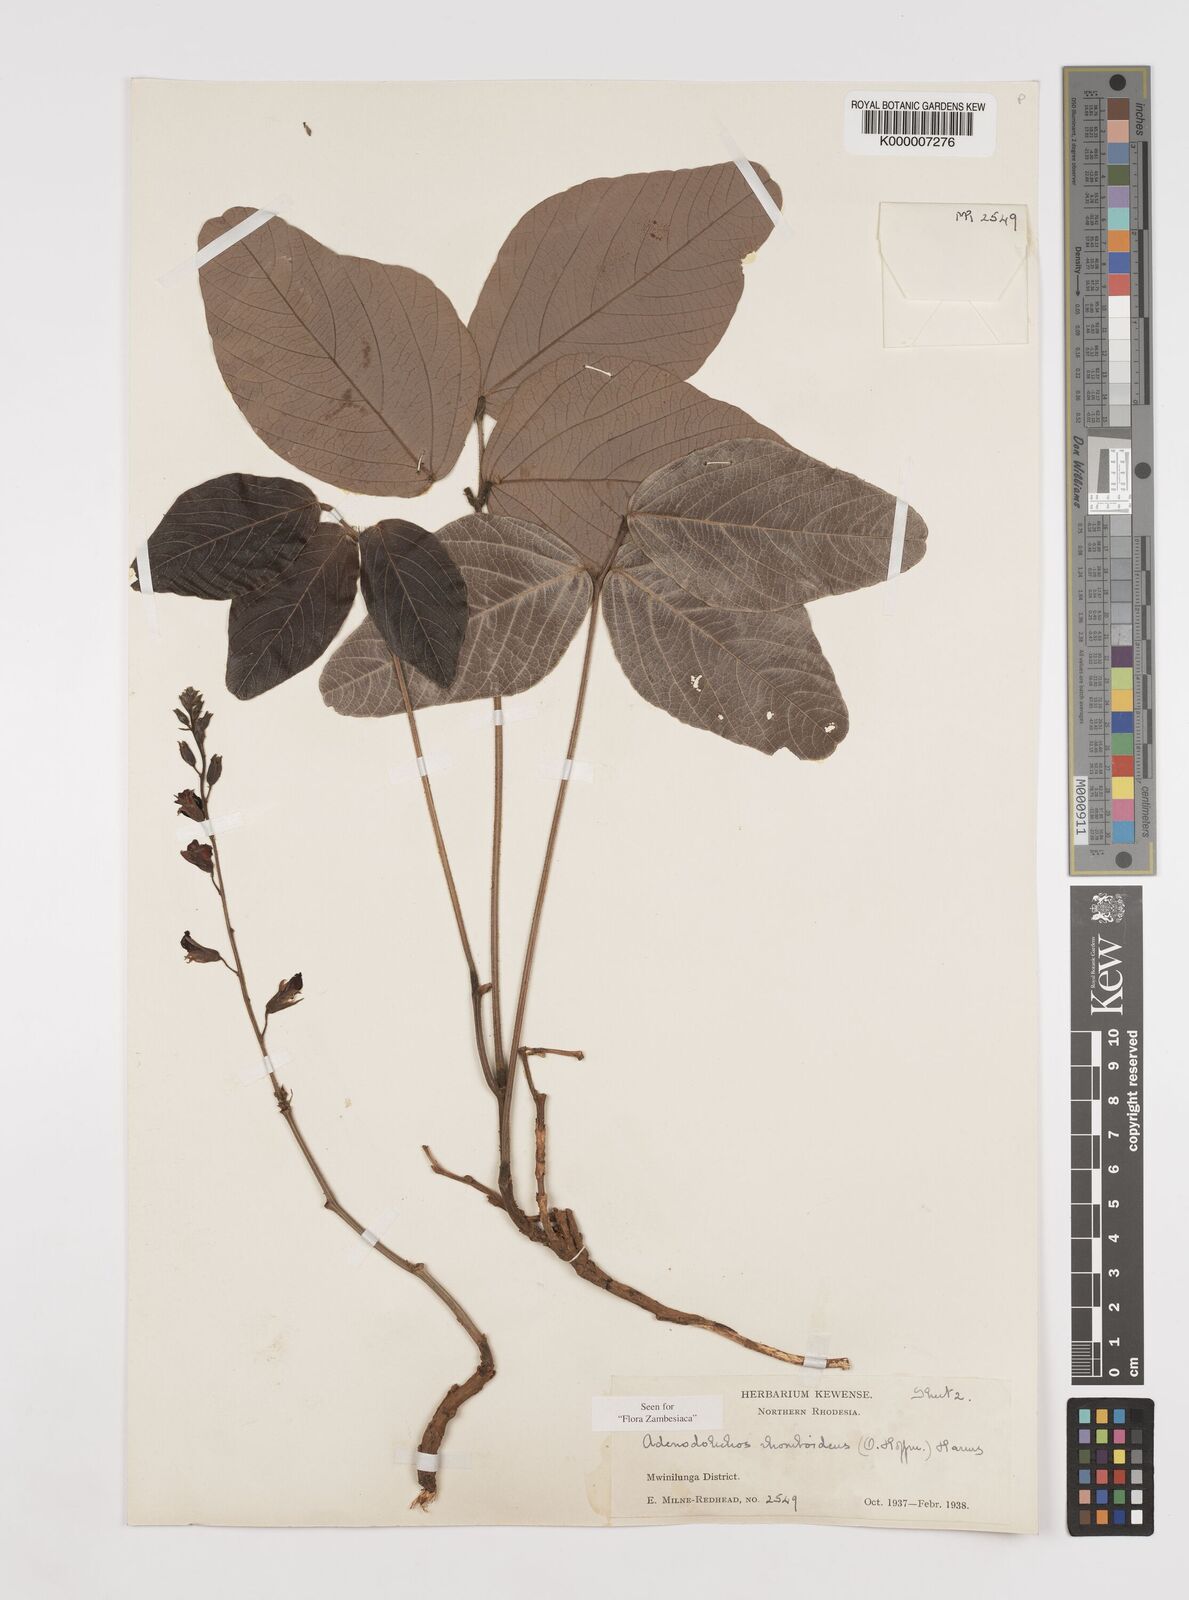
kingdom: Plantae
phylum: Tracheophyta
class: Magnoliopsida
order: Fabales
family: Fabaceae
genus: Adenodolichos
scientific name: Adenodolichos rhomboideus
